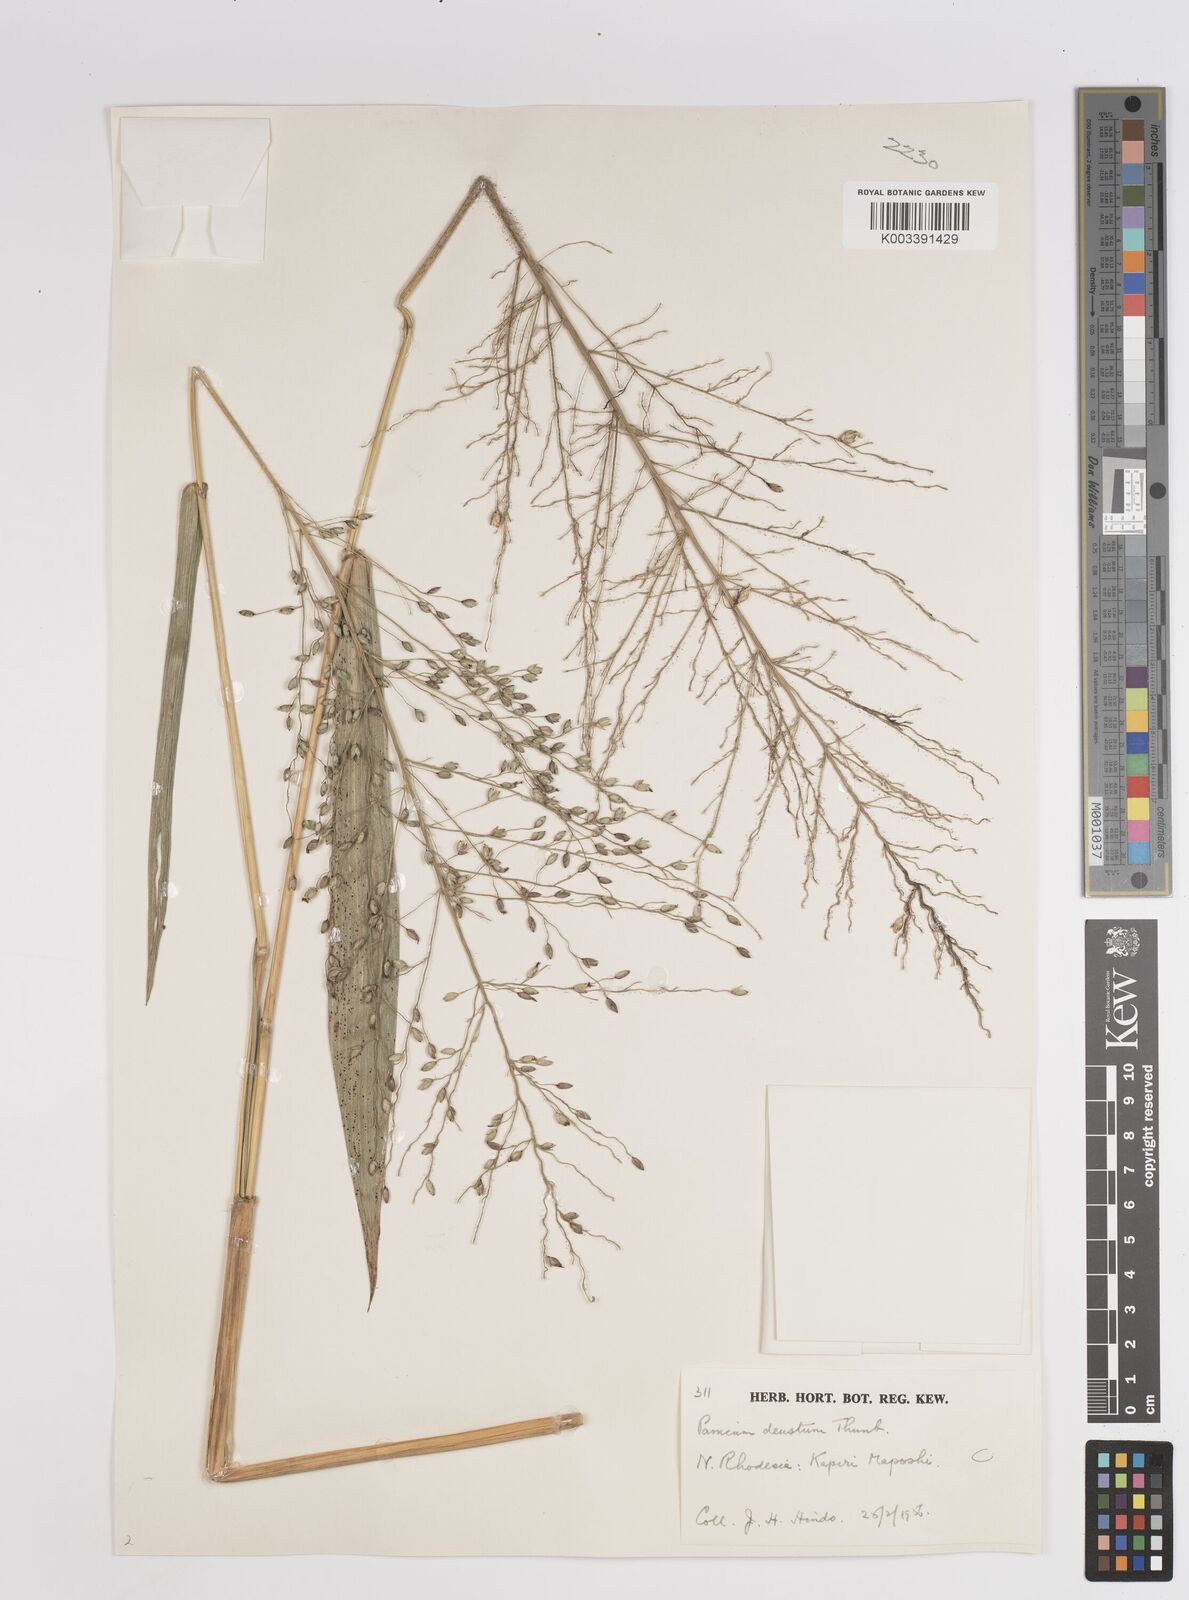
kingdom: Plantae
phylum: Tracheophyta
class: Liliopsida
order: Poales
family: Poaceae
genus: Panicum
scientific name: Panicum deustum
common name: Reed panicum
